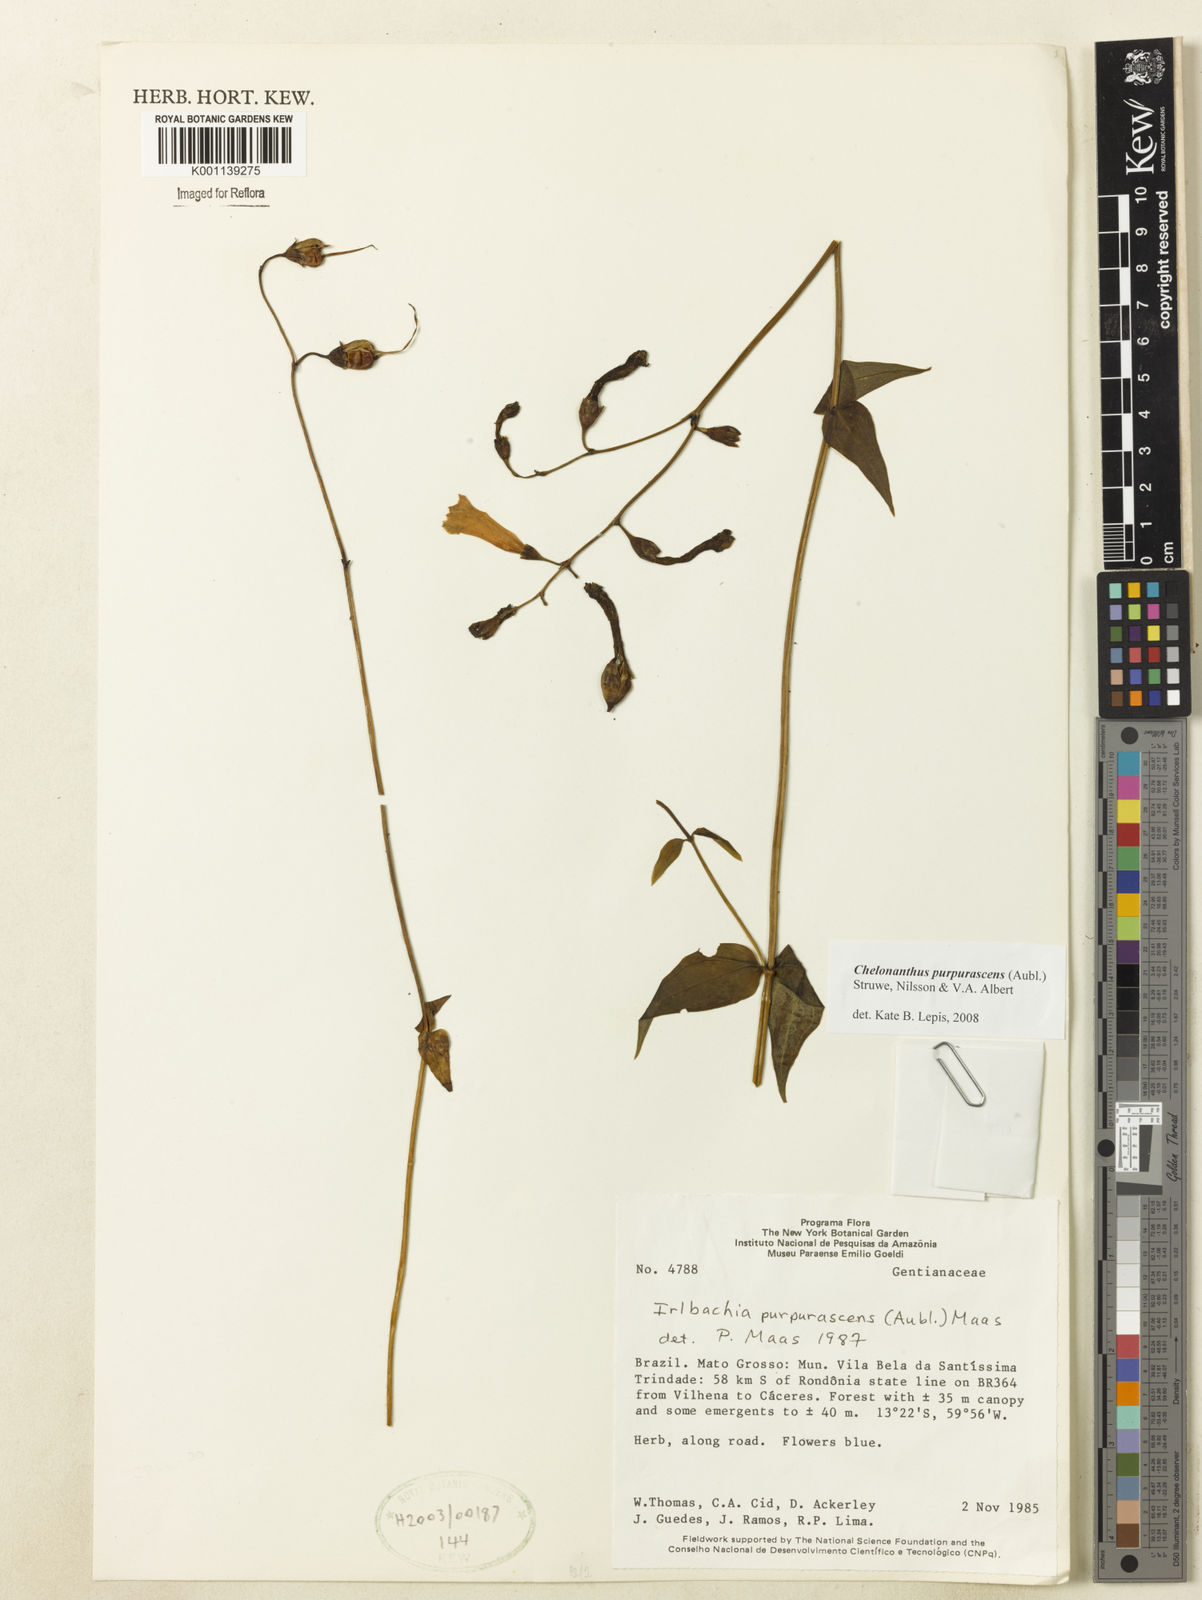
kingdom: Plantae
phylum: Tracheophyta
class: Magnoliopsida
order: Gentianales
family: Gentianaceae
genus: Chelonanthus
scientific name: Chelonanthus purpurascens
